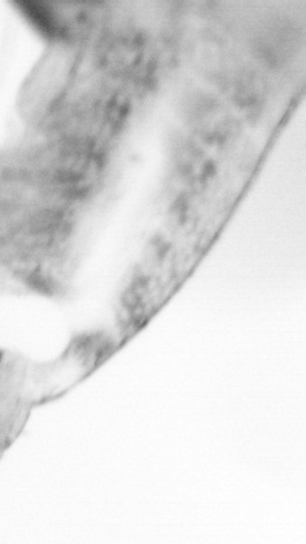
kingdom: Animalia
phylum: Chordata
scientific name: Chordata
